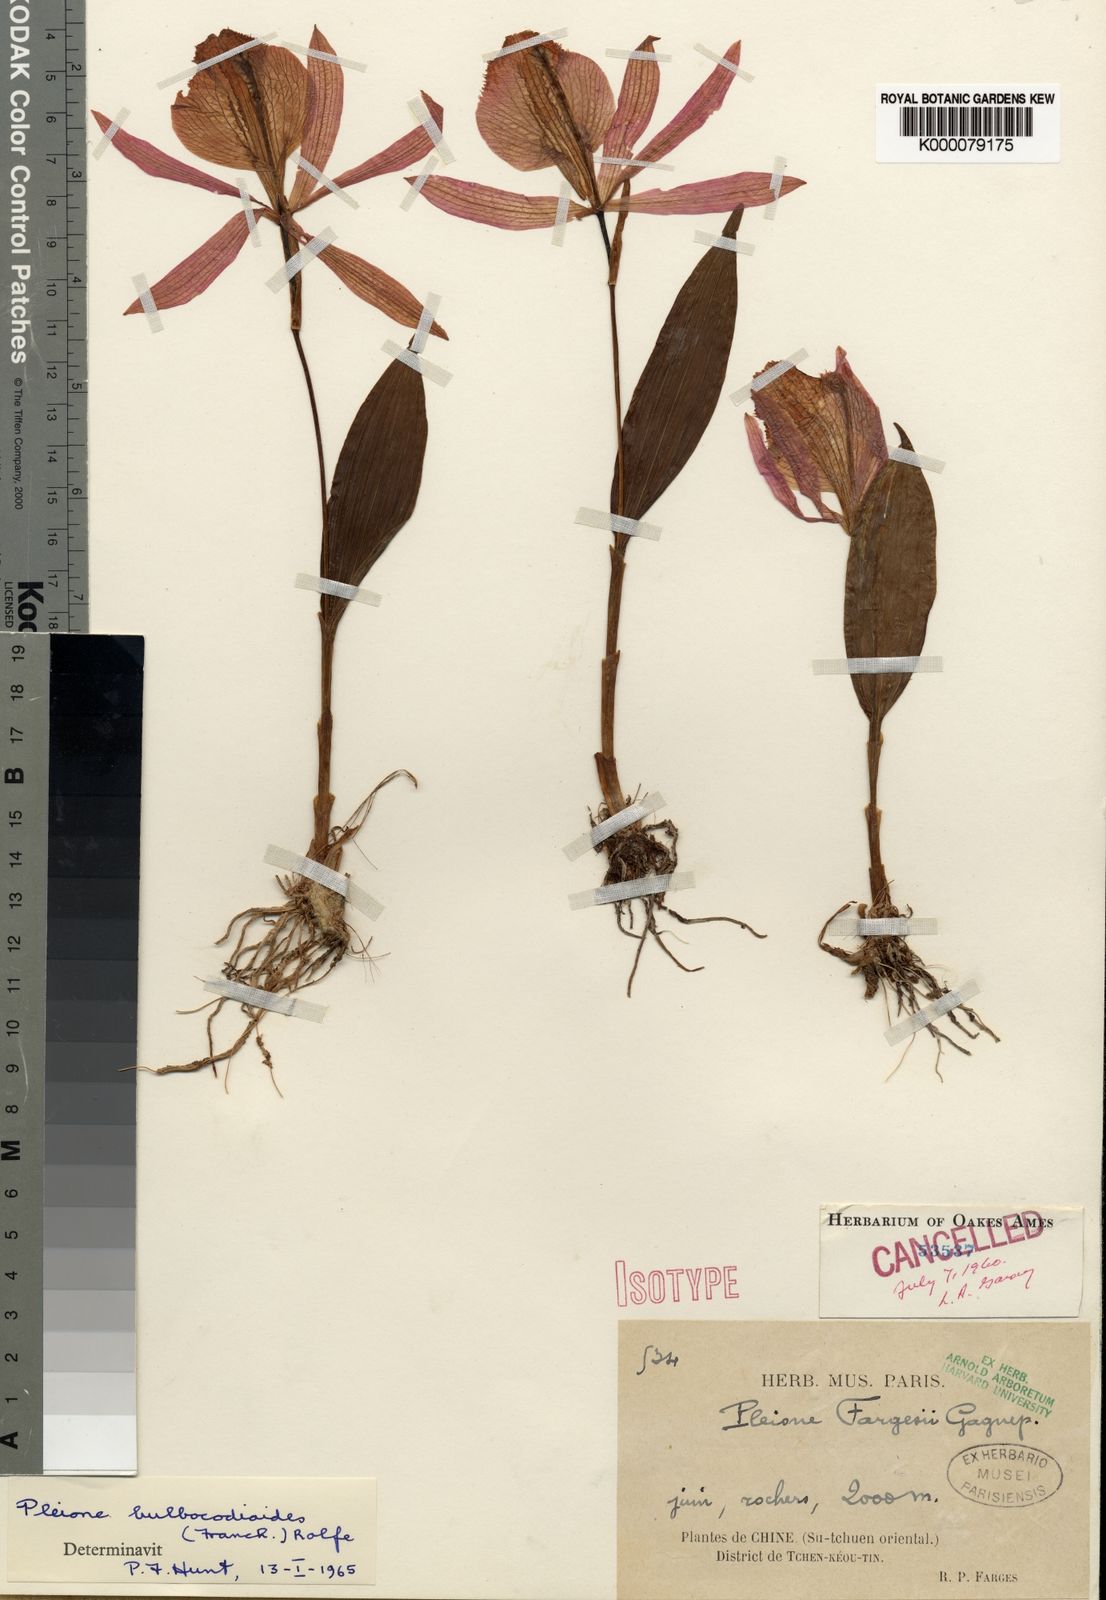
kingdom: Plantae
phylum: Tracheophyta
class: Liliopsida
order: Asparagales
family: Orchidaceae
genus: Pleione
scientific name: Pleione bulbocodioides
